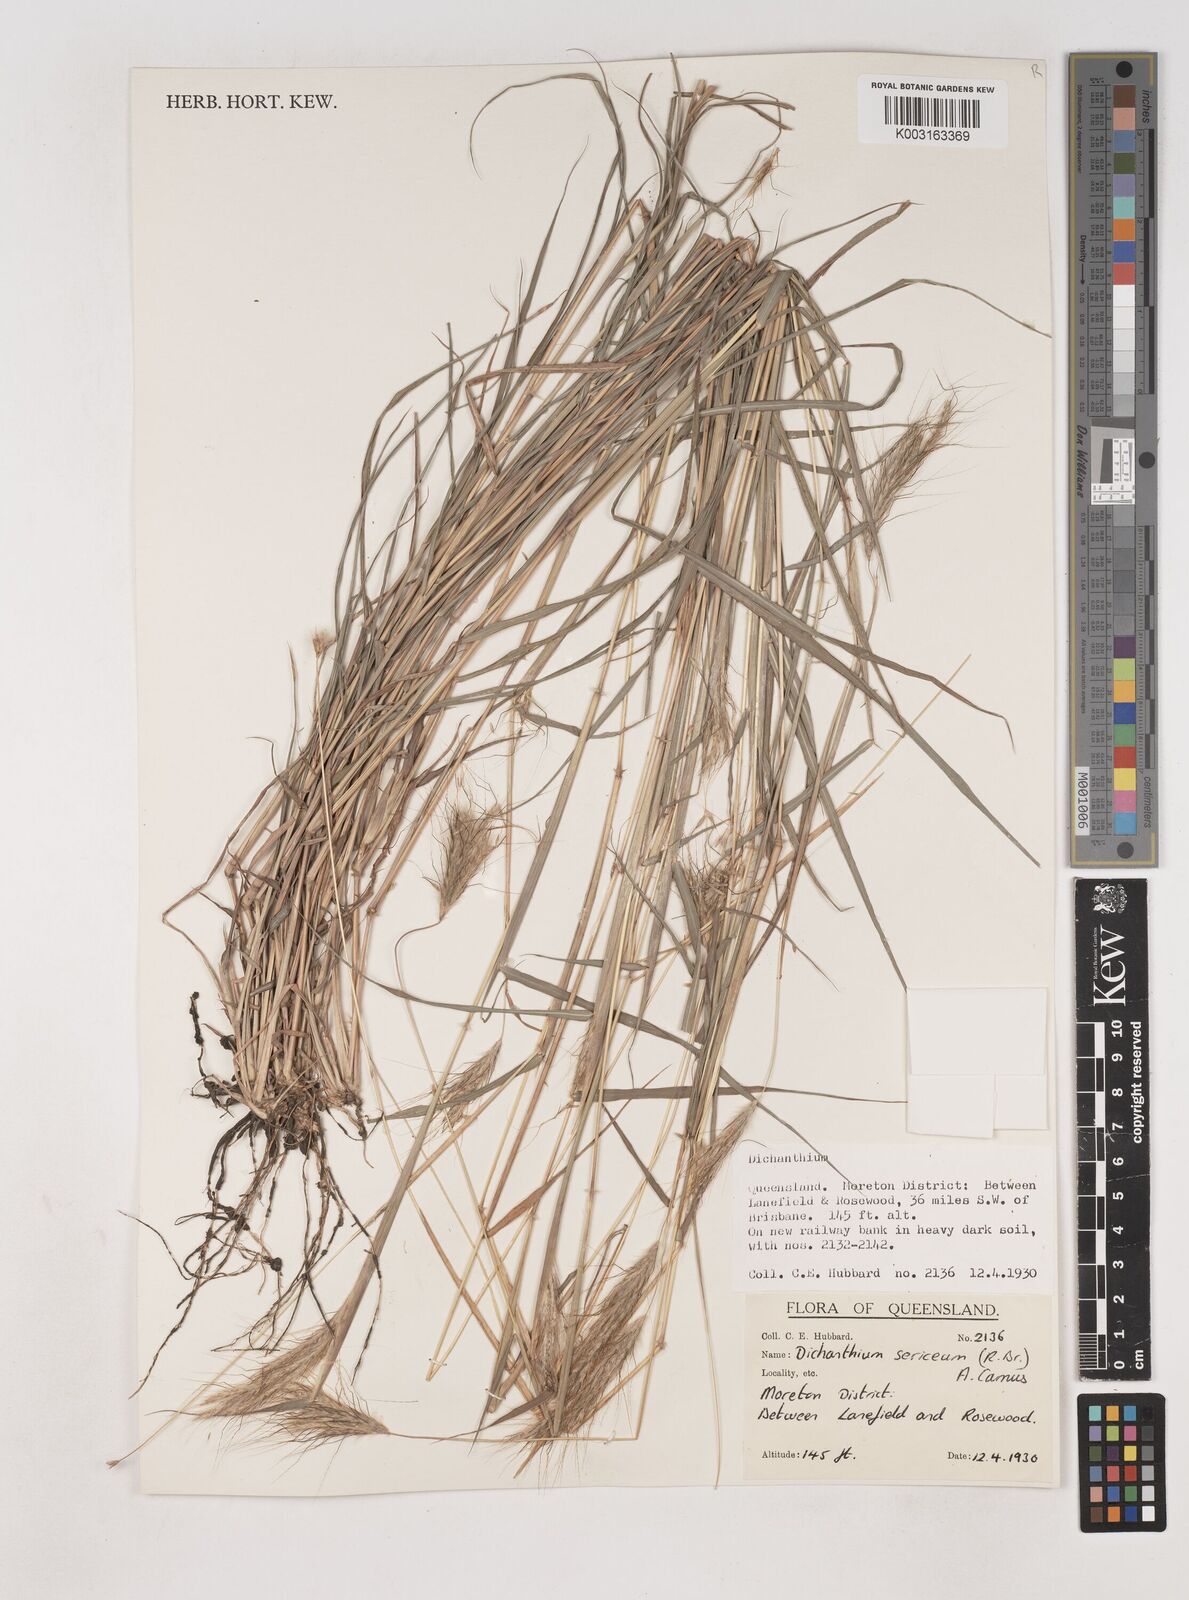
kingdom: Plantae
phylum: Tracheophyta
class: Liliopsida
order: Poales
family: Poaceae
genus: Dichanthium
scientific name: Dichanthium sericeum
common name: Silky bluestem
